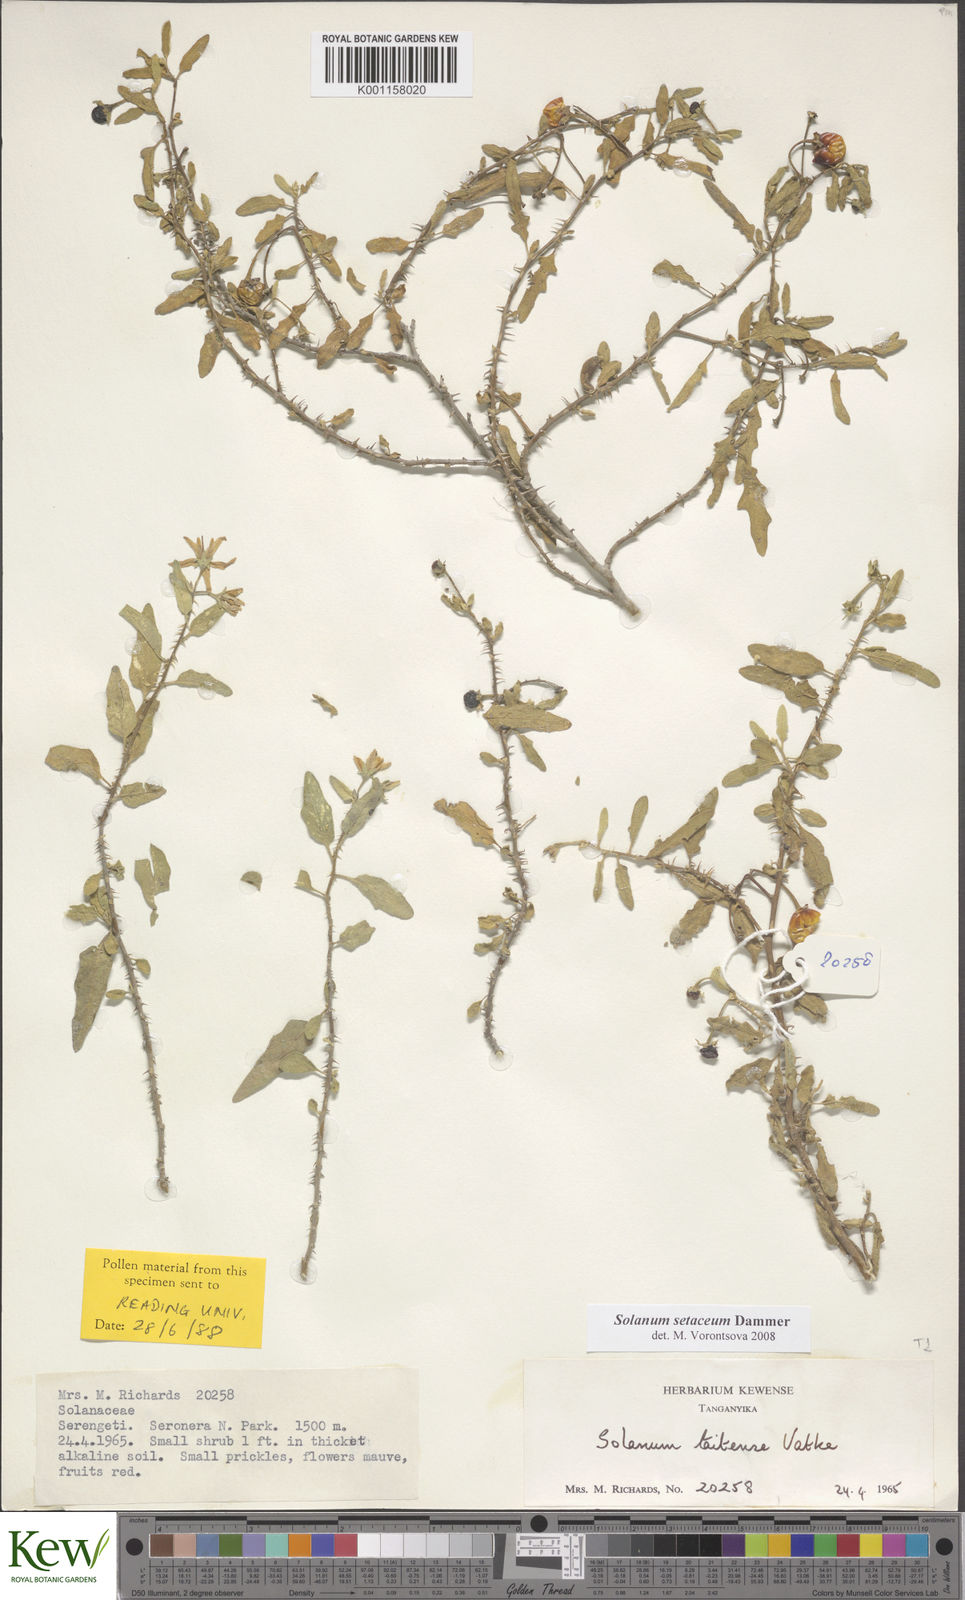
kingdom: Plantae
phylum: Tracheophyta
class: Magnoliopsida
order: Solanales
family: Solanaceae
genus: Solanum
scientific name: Solanum setaceum
